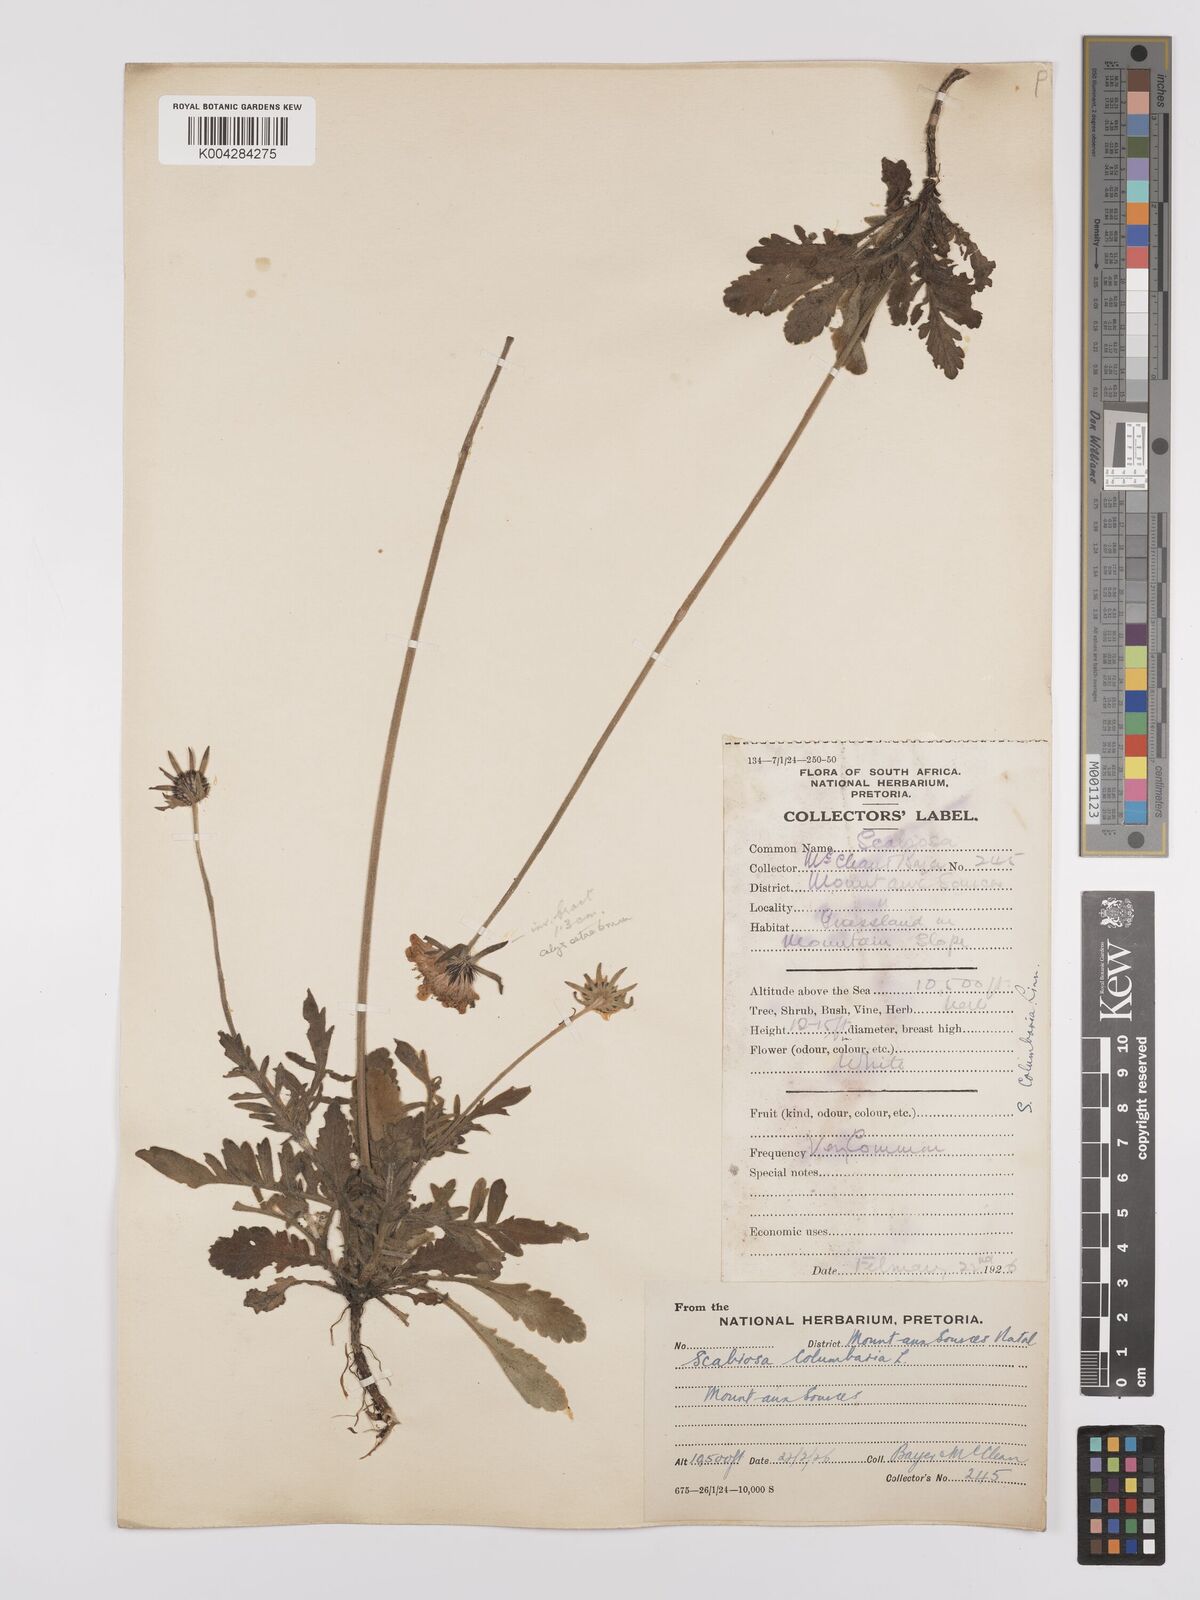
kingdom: Plantae
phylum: Tracheophyta
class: Magnoliopsida
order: Dipsacales
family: Caprifoliaceae
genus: Scabiosa
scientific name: Scabiosa columbaria
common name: Small scabious
